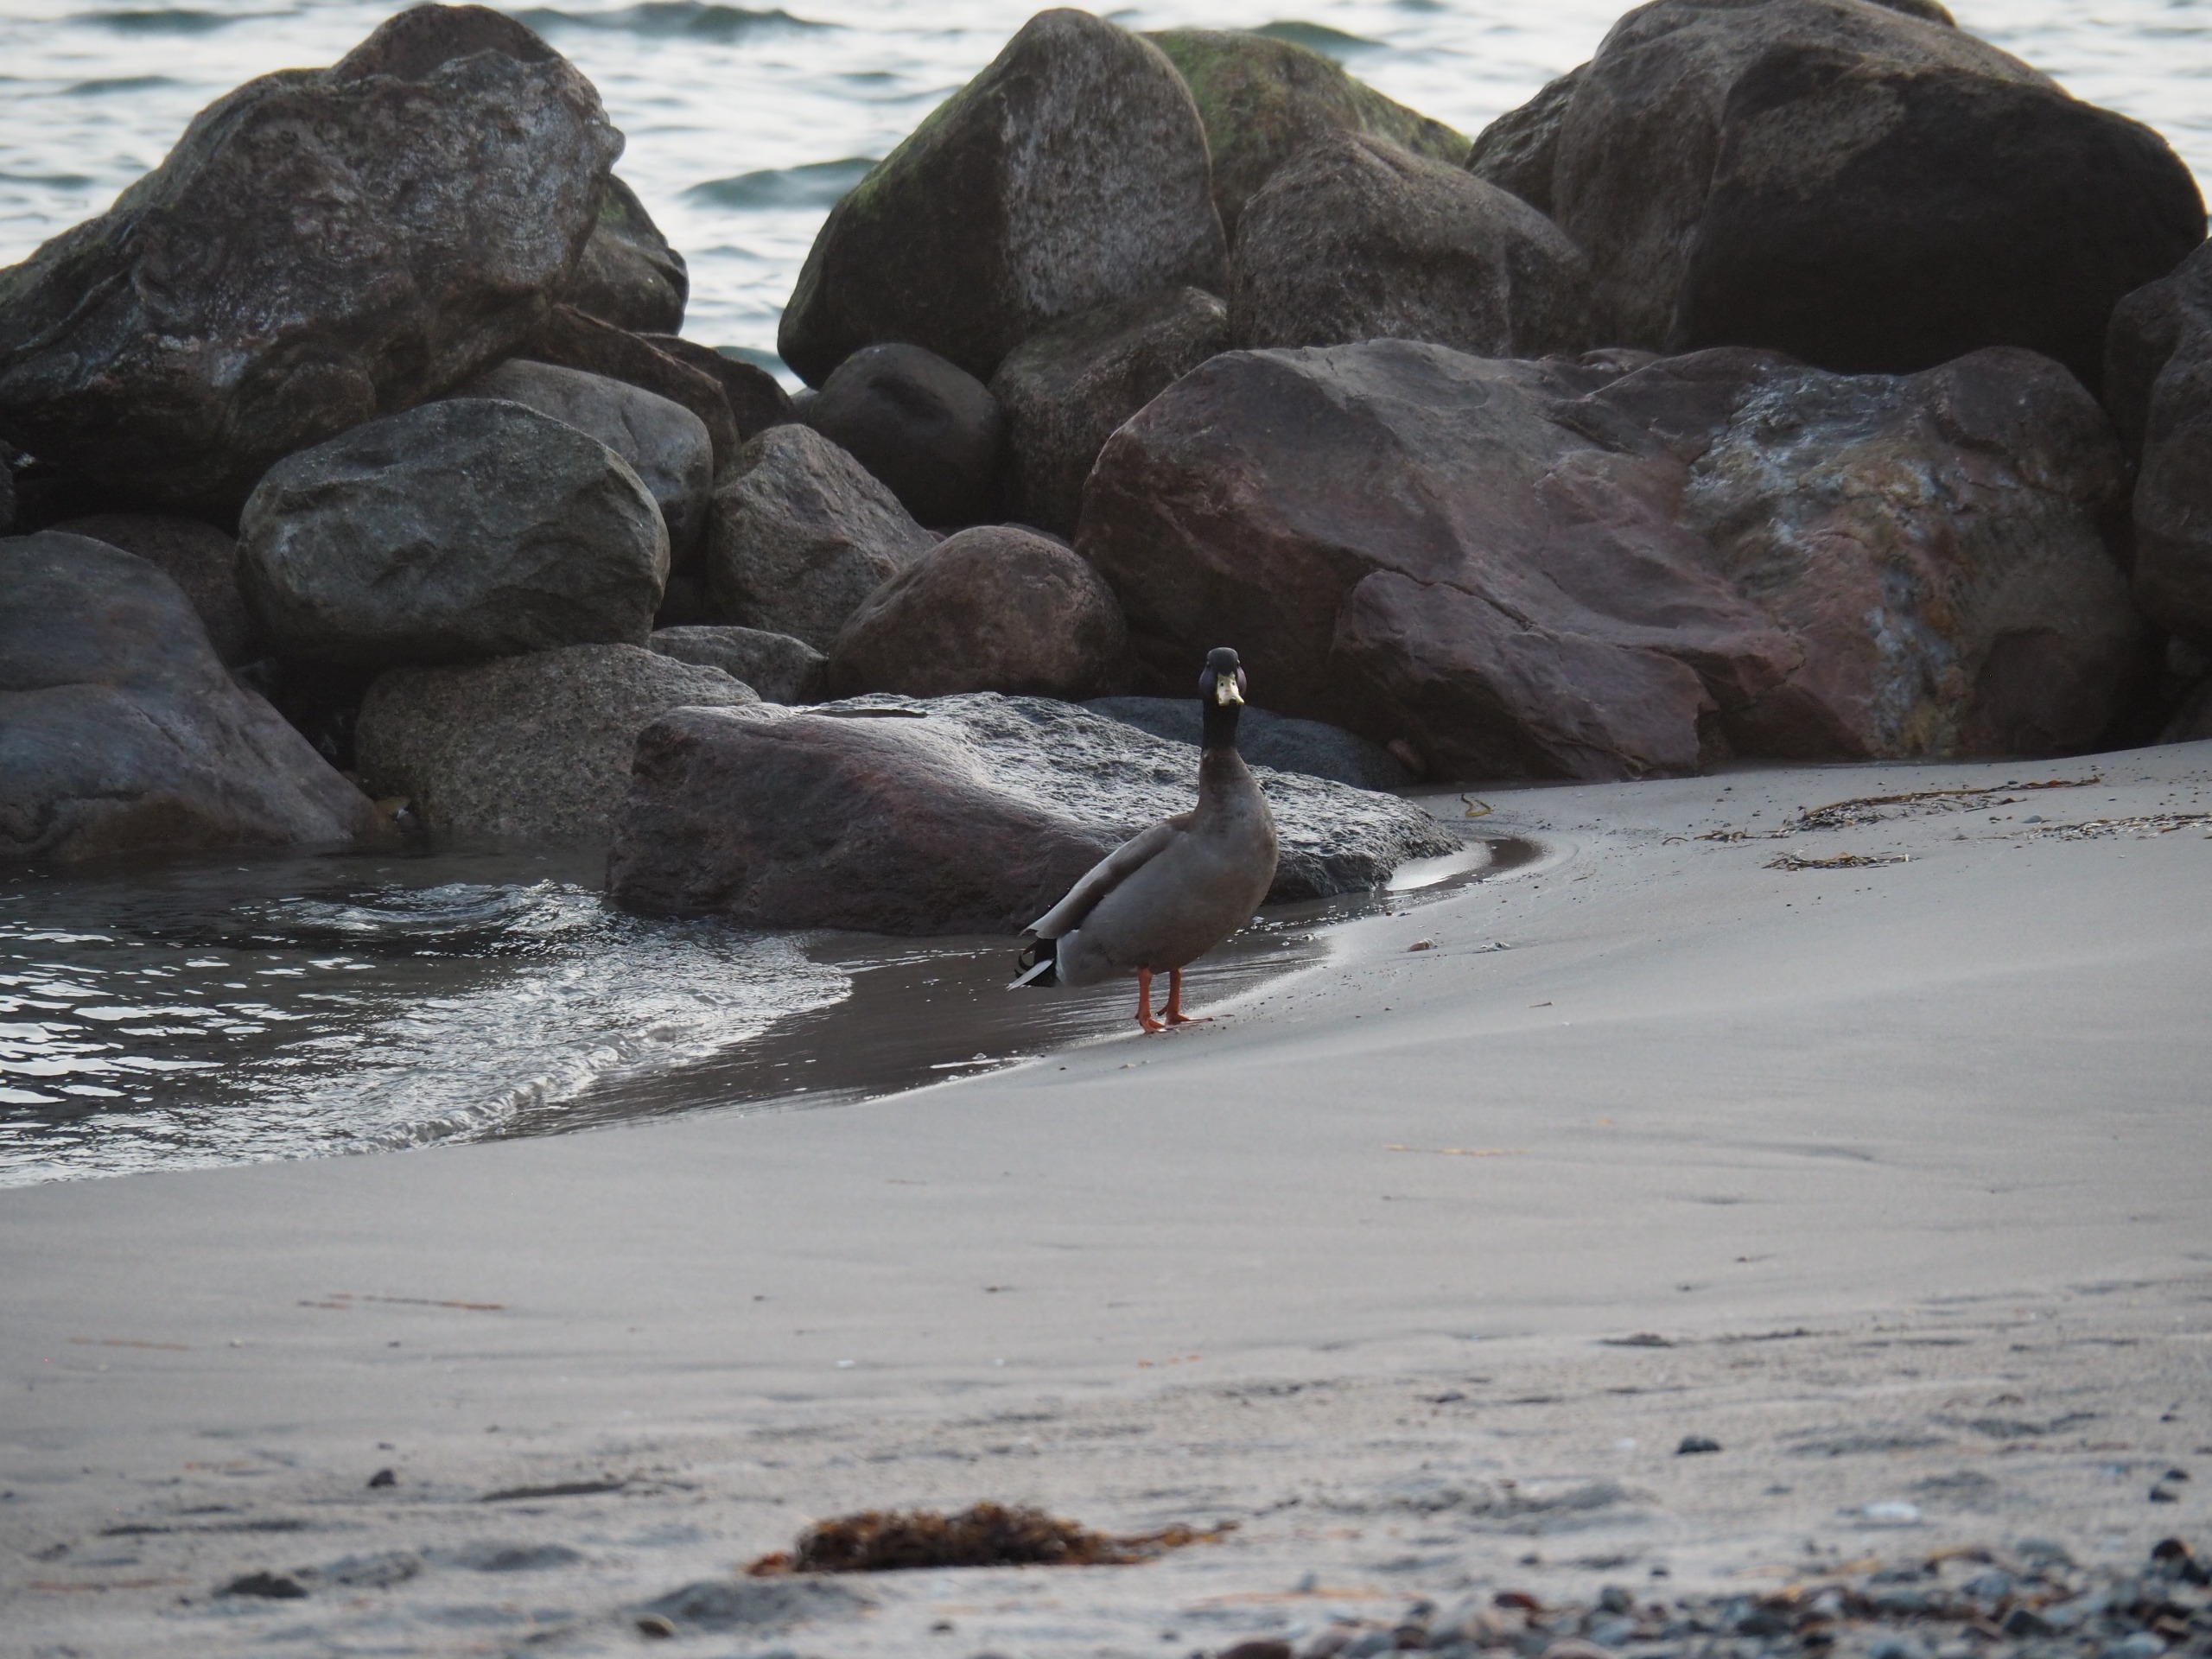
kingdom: Animalia
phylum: Chordata
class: Aves
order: Anseriformes
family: Anatidae
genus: Anas
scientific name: Anas platyrhynchos
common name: Gråand
